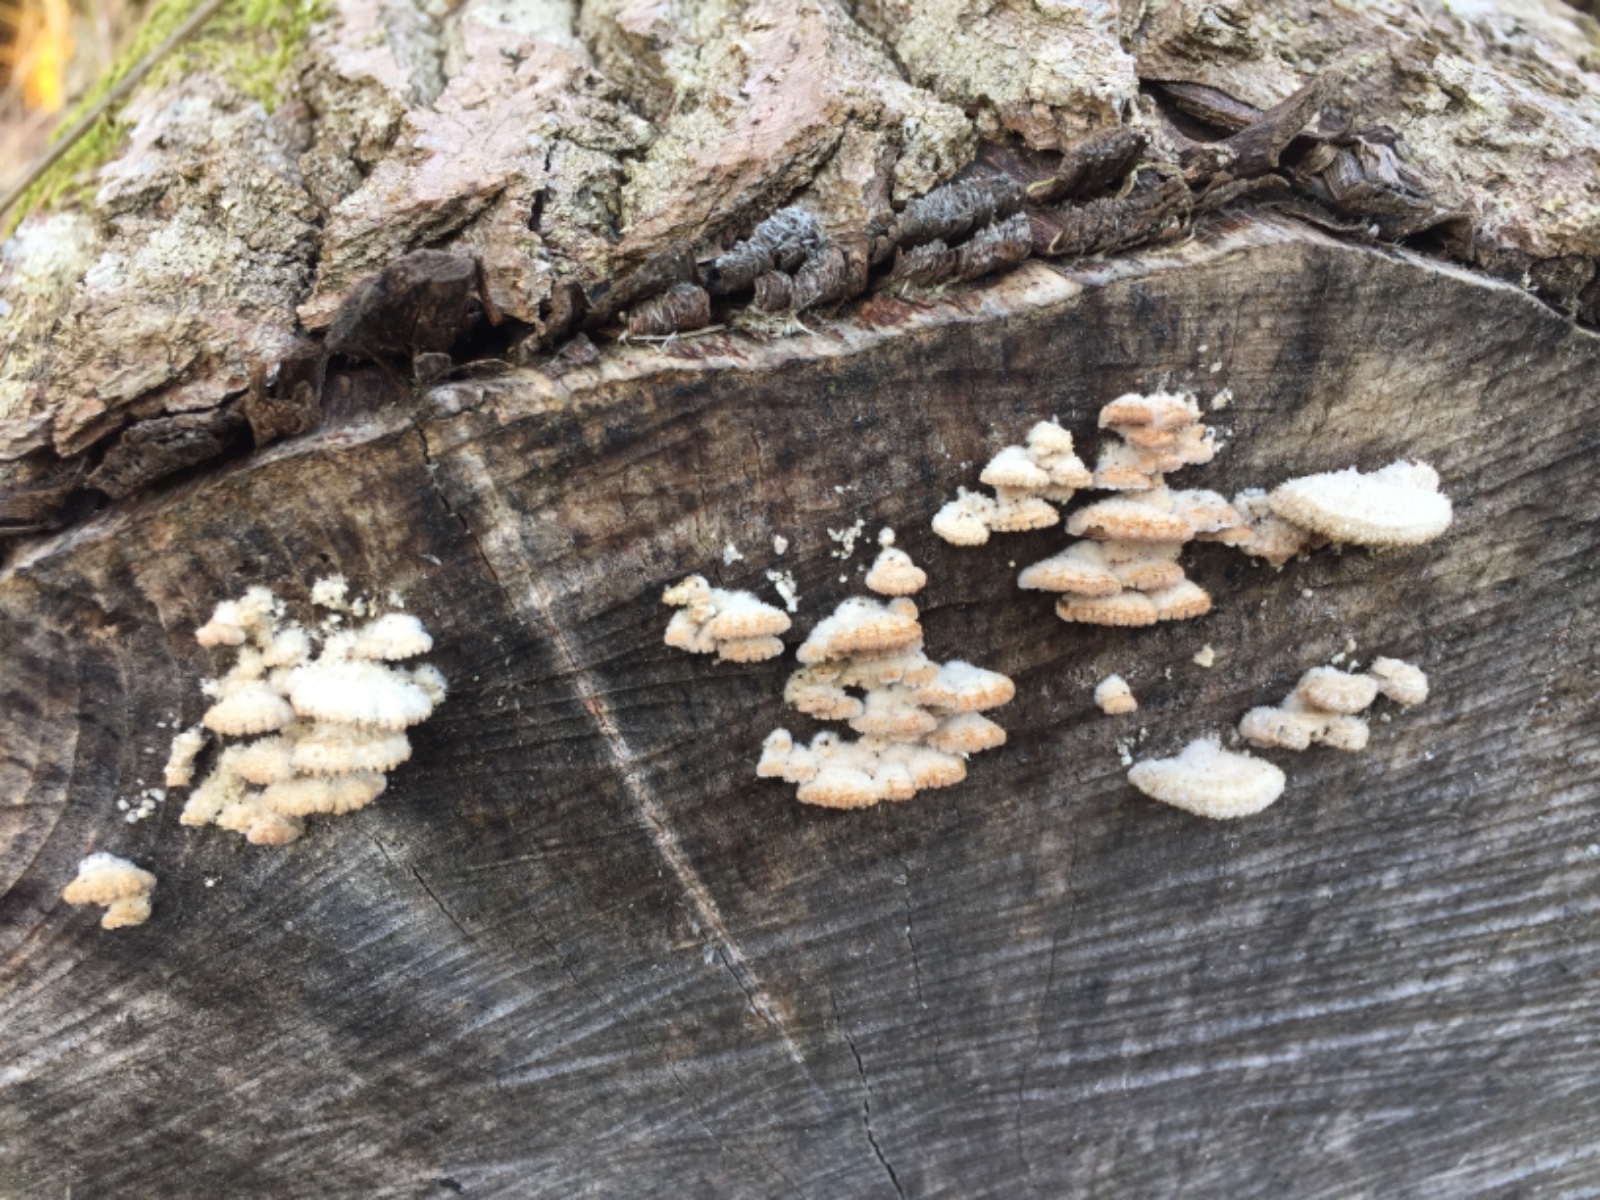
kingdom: Fungi
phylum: Basidiomycota
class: Agaricomycetes
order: Agaricales
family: Schizophyllaceae
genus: Schizophyllum
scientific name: Schizophyllum commune
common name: kløvblad
